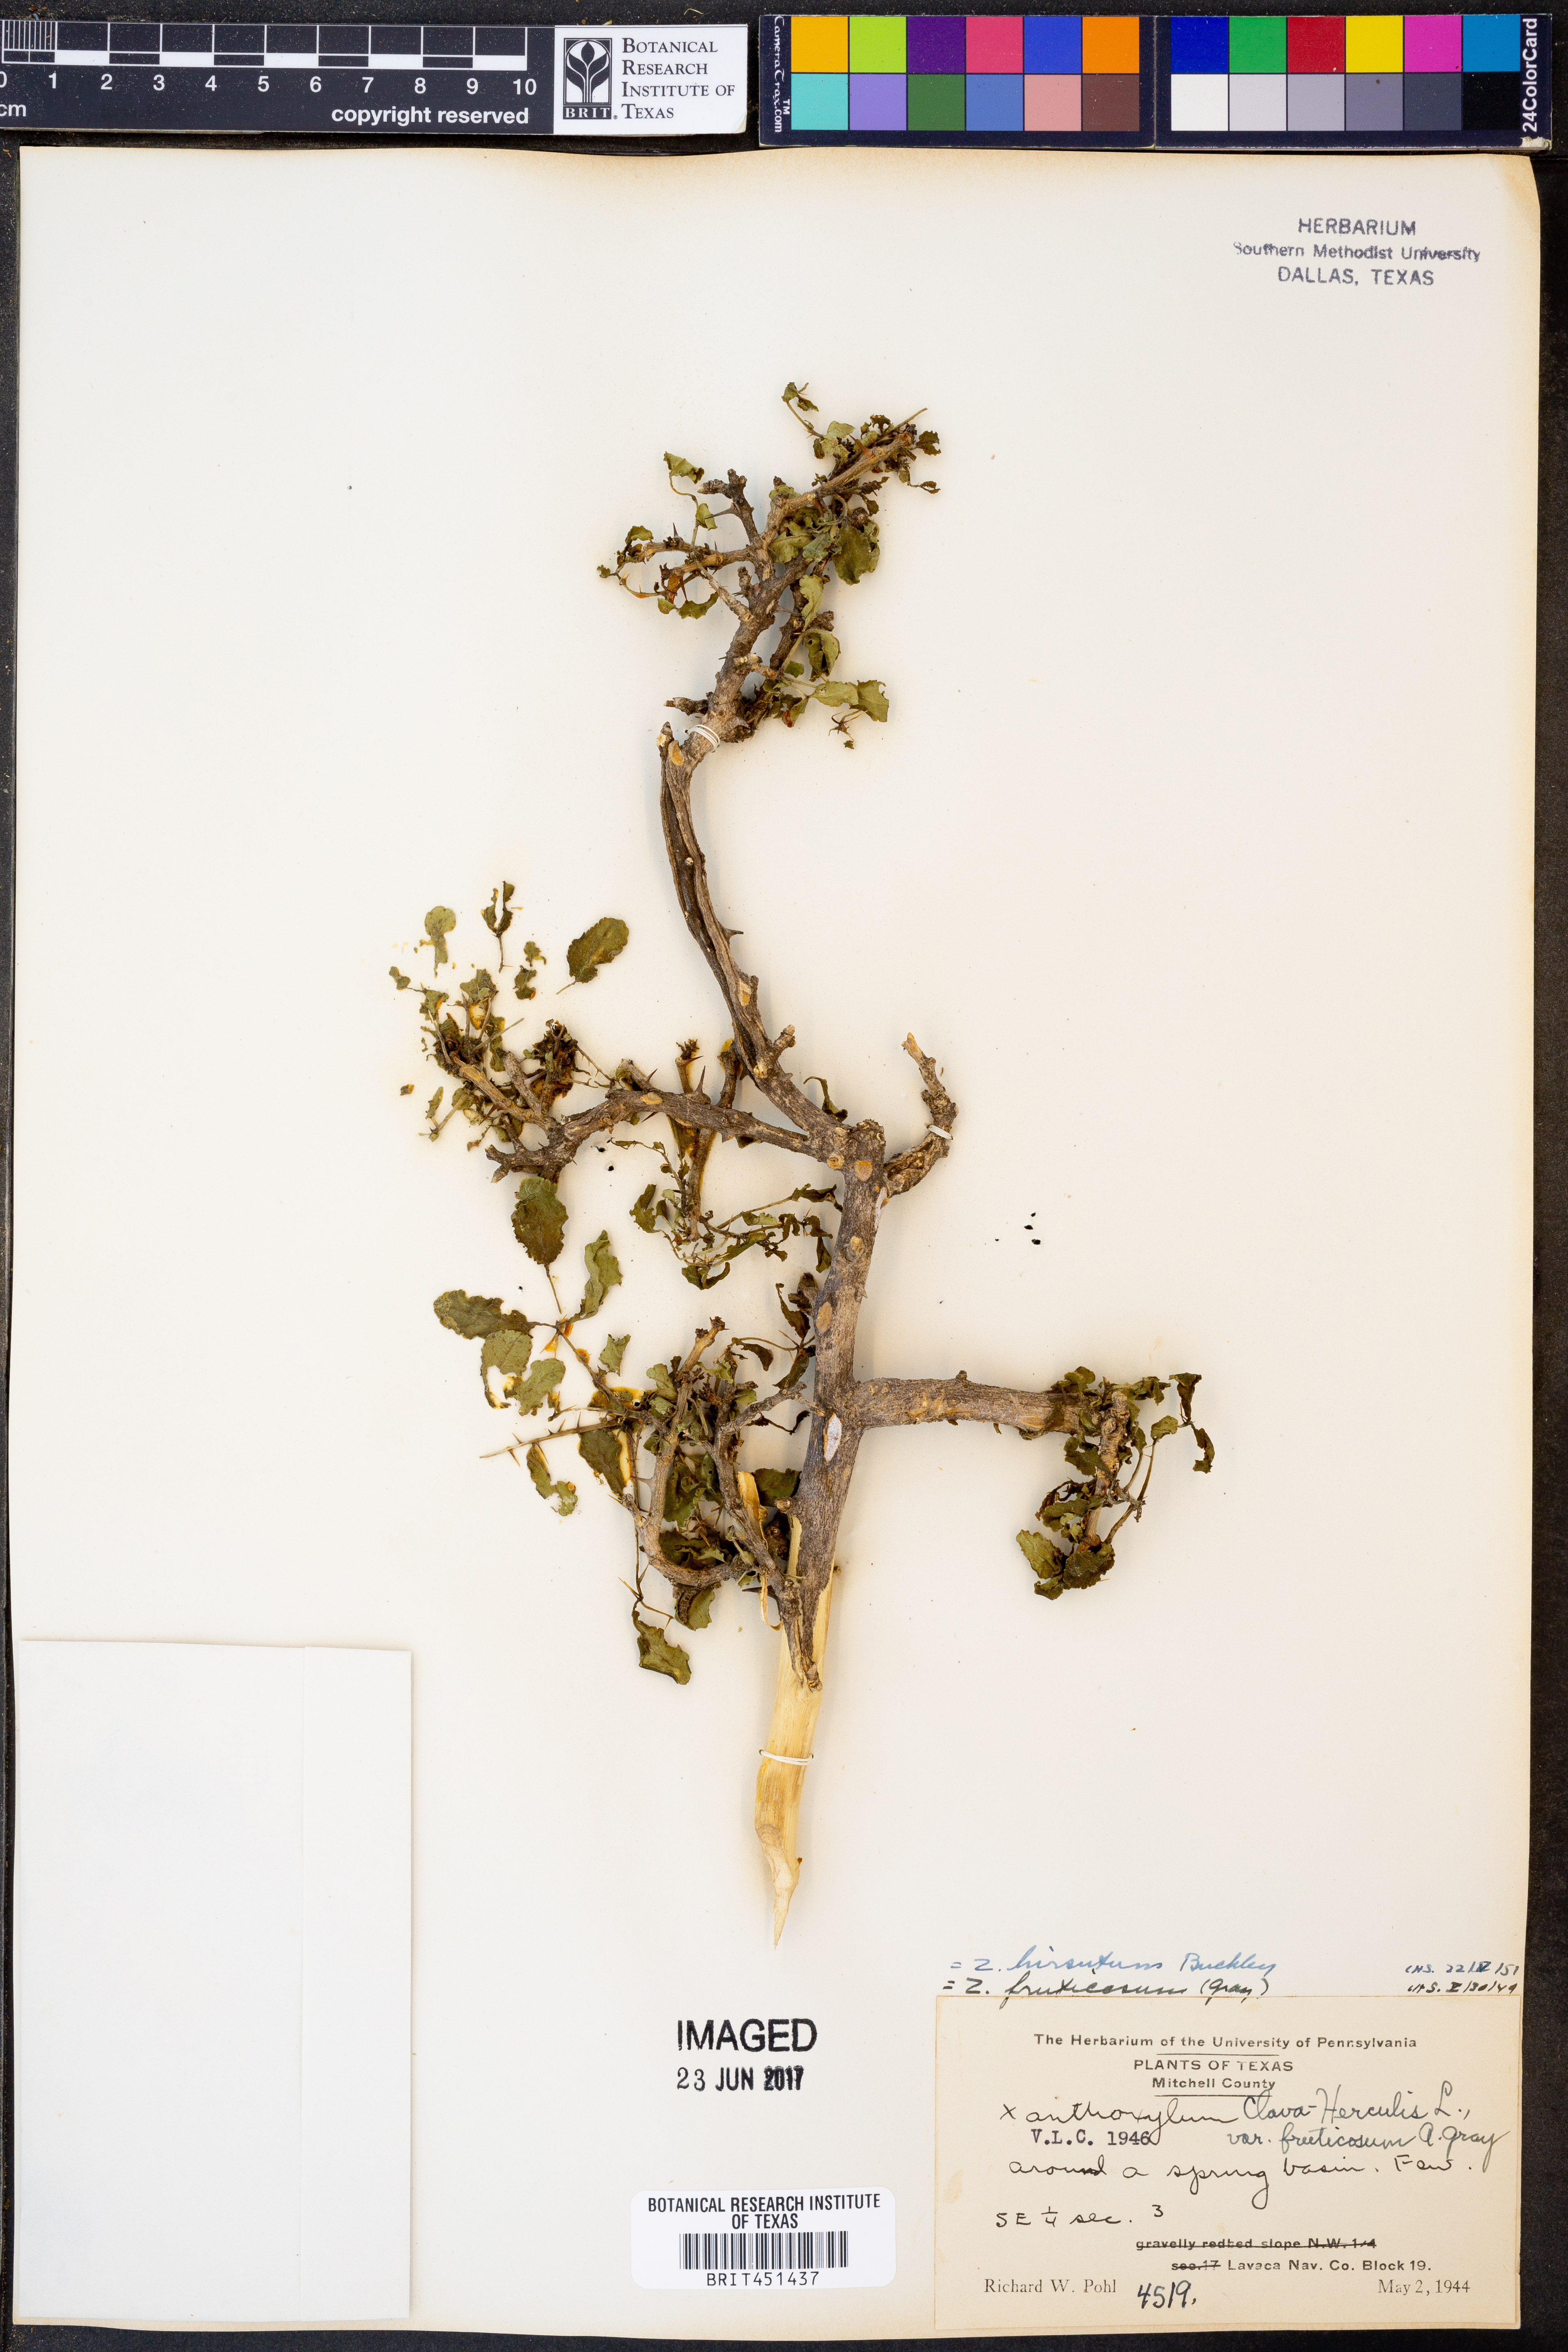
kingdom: Plantae
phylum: Tracheophyta
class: Magnoliopsida
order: Sapindales
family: Rutaceae
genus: Zanthoxylum
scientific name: Zanthoxylum clava-herculis
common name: Hercules'-club
